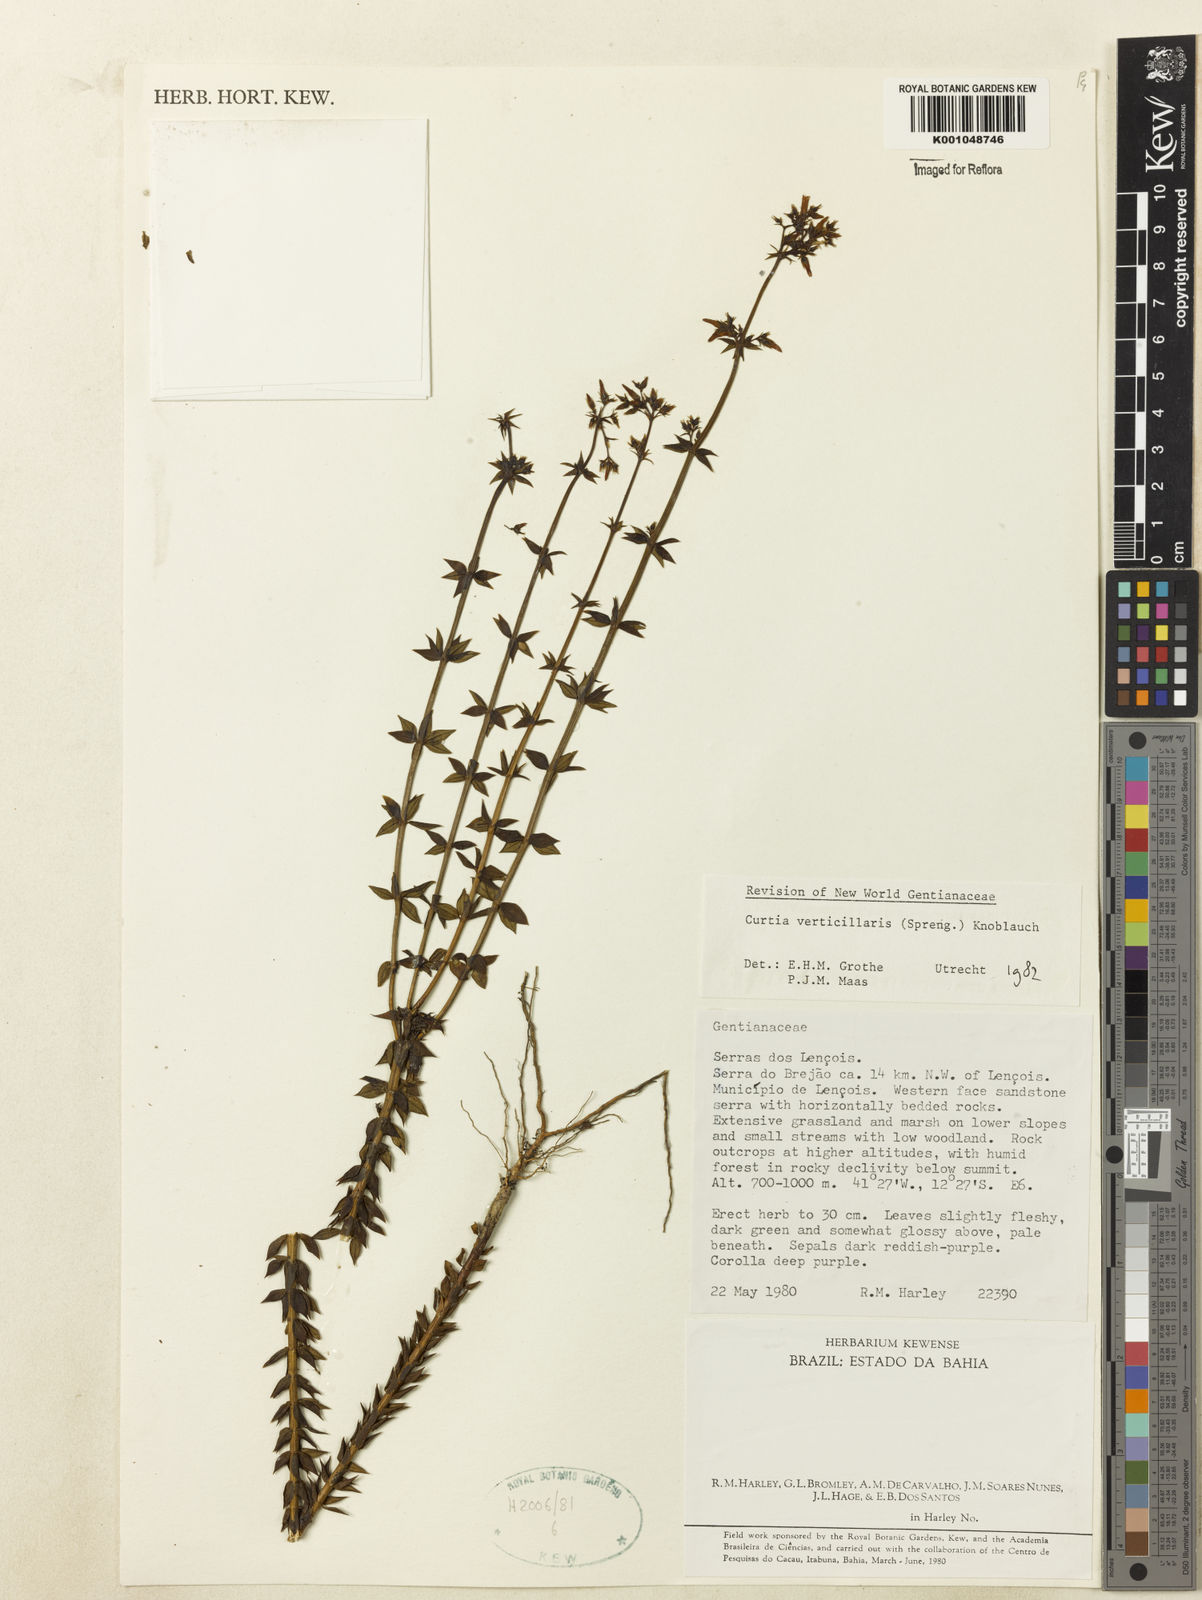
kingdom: Plantae
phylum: Tracheophyta
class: Magnoliopsida
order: Gentianales
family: Gentianaceae
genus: Curtia
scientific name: Curtia verticillaris
